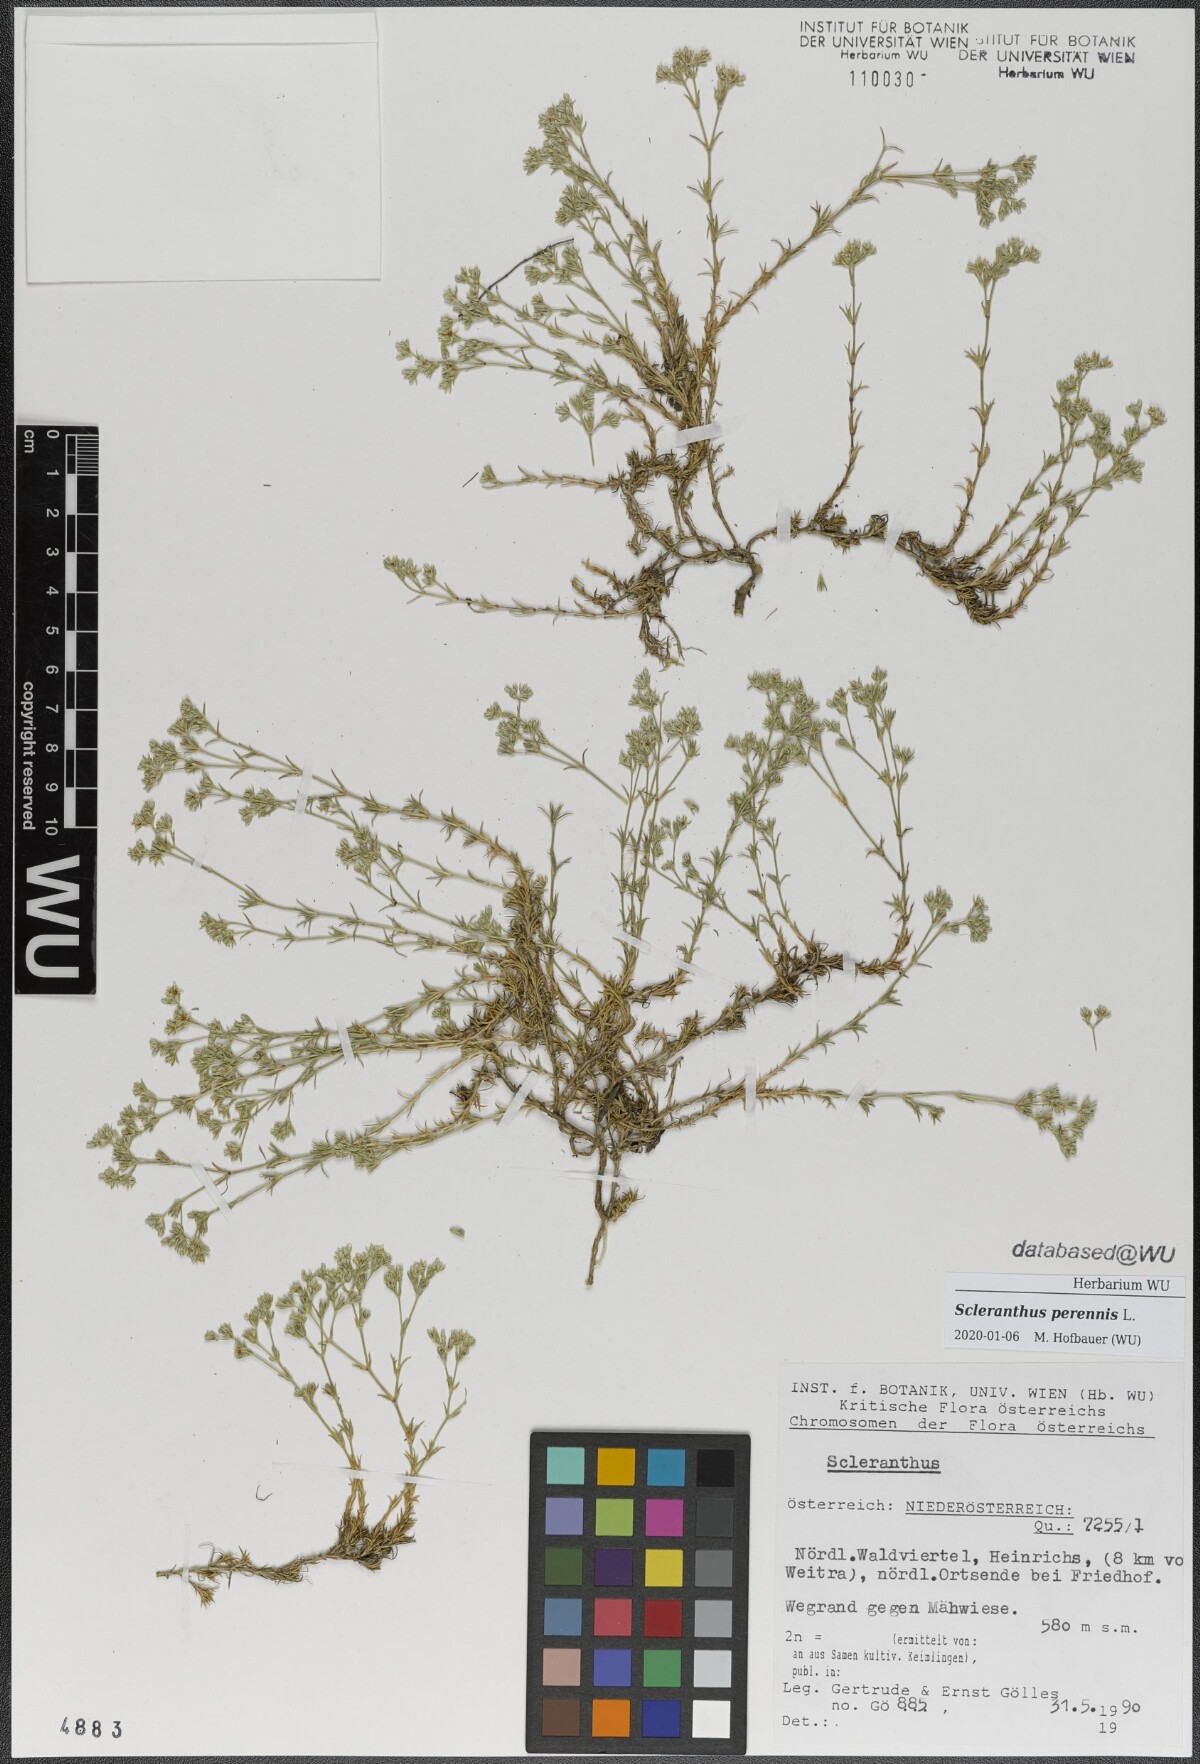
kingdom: Plantae
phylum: Tracheophyta
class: Magnoliopsida
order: Caryophyllales
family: Caryophyllaceae
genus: Scleranthus
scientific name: Scleranthus perennis
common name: Perennial knawel
